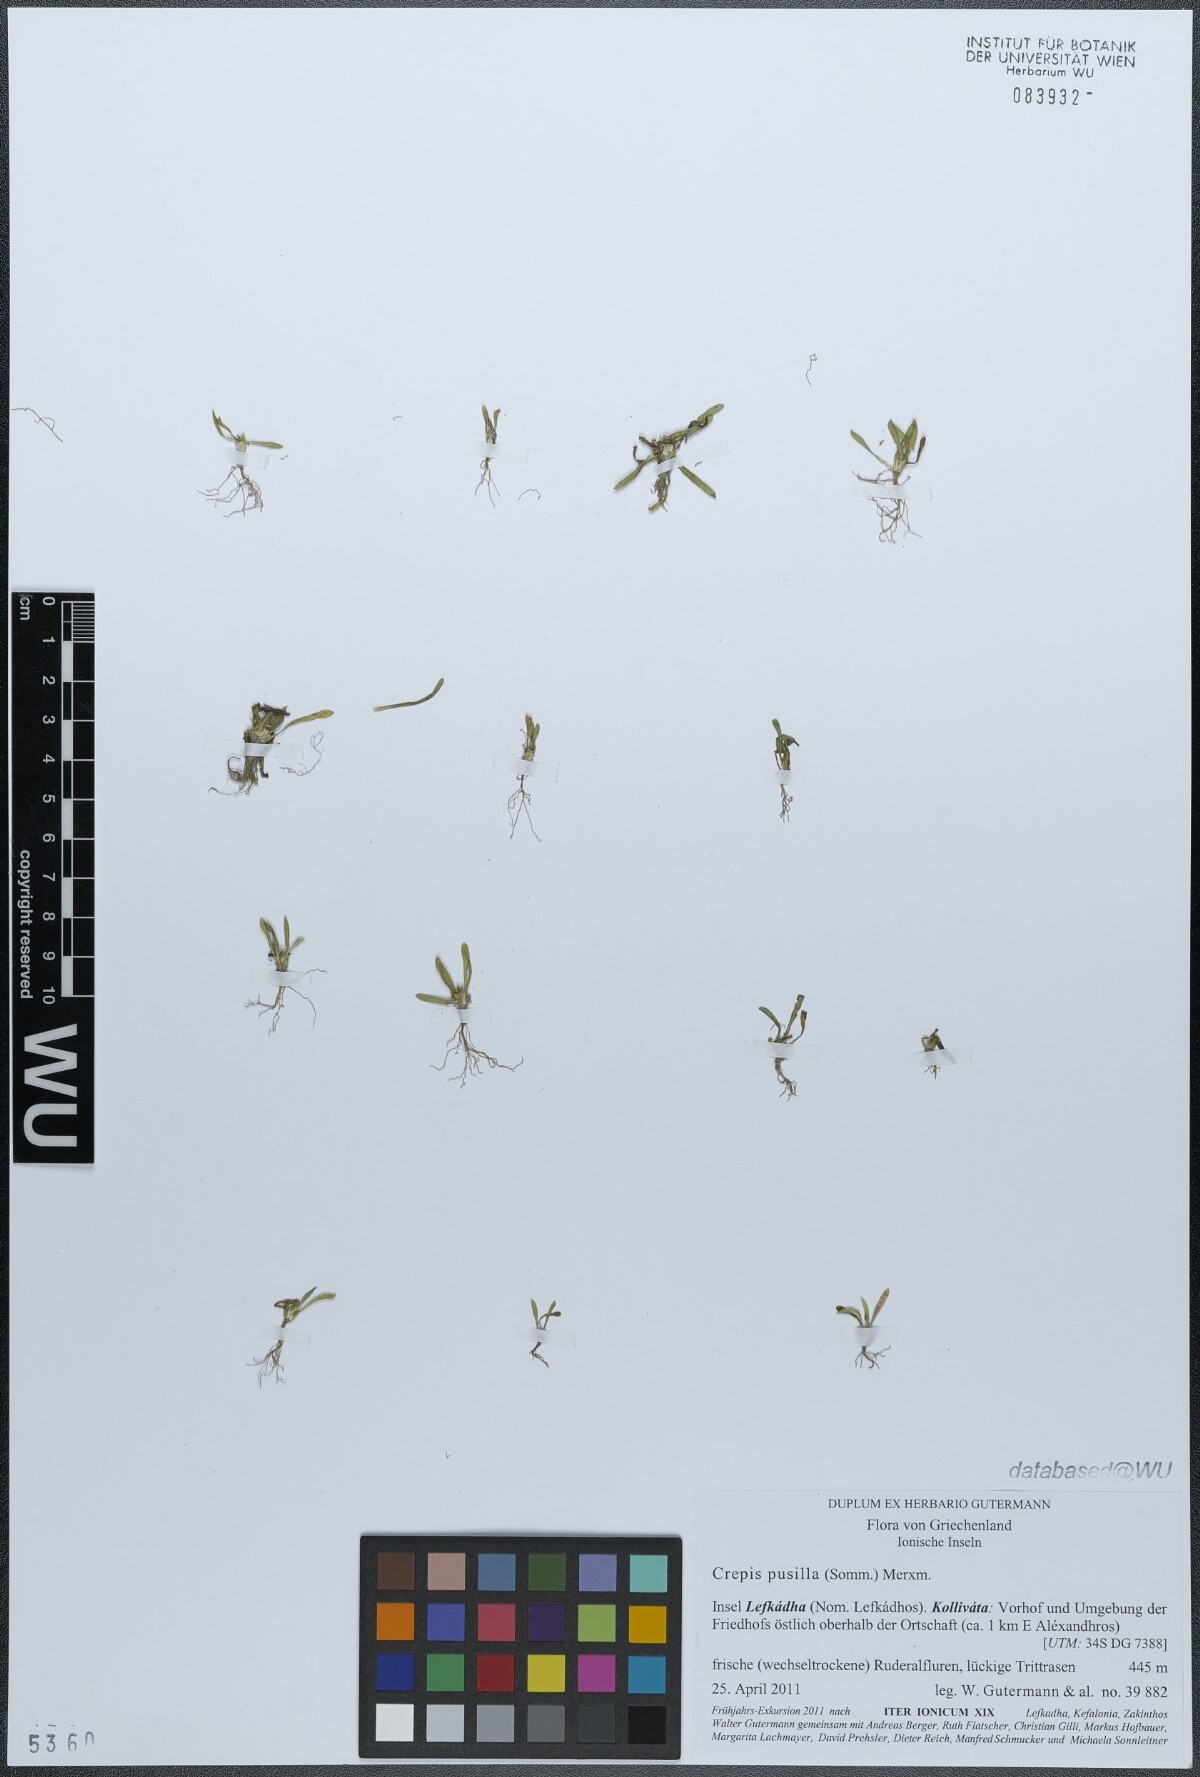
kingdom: Plantae
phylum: Tracheophyta
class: Magnoliopsida
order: Asterales
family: Asteraceae
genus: Crepis
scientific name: Crepis pusilla
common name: Dandelion crepis
